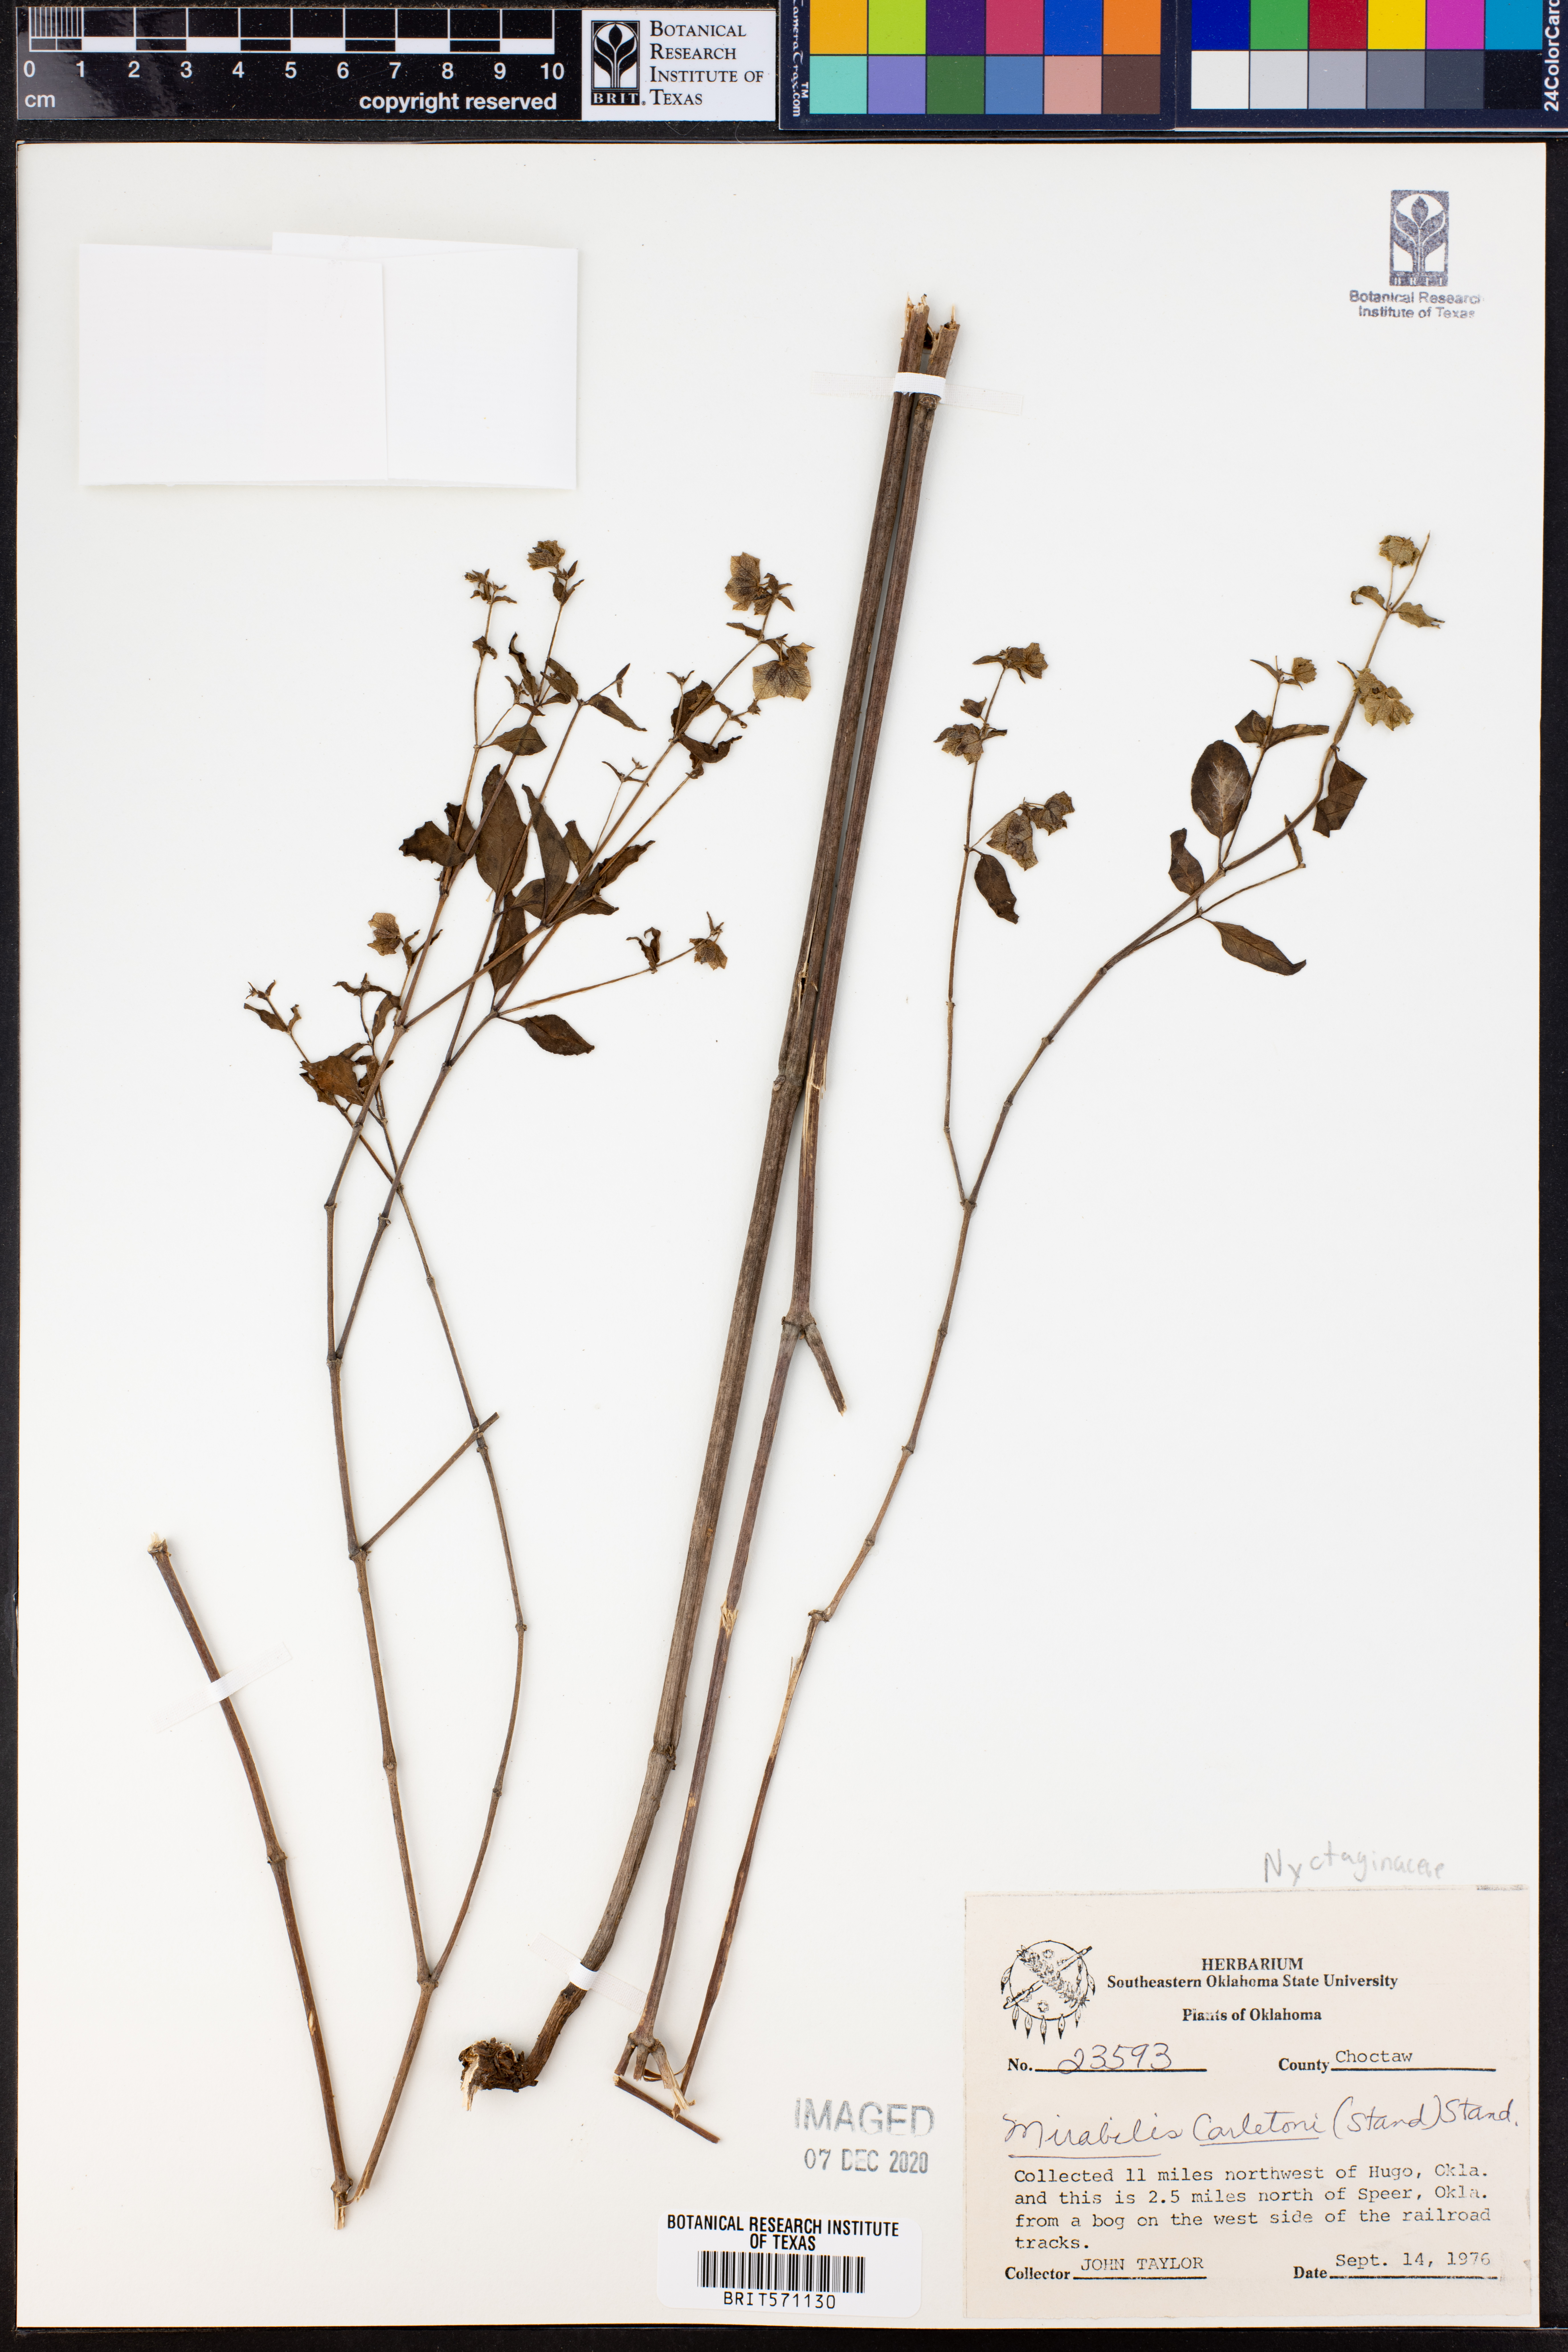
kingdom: Plantae
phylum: Tracheophyta
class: Magnoliopsida
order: Caryophyllales
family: Nyctaginaceae
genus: Mirabilis
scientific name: Mirabilis glabra
